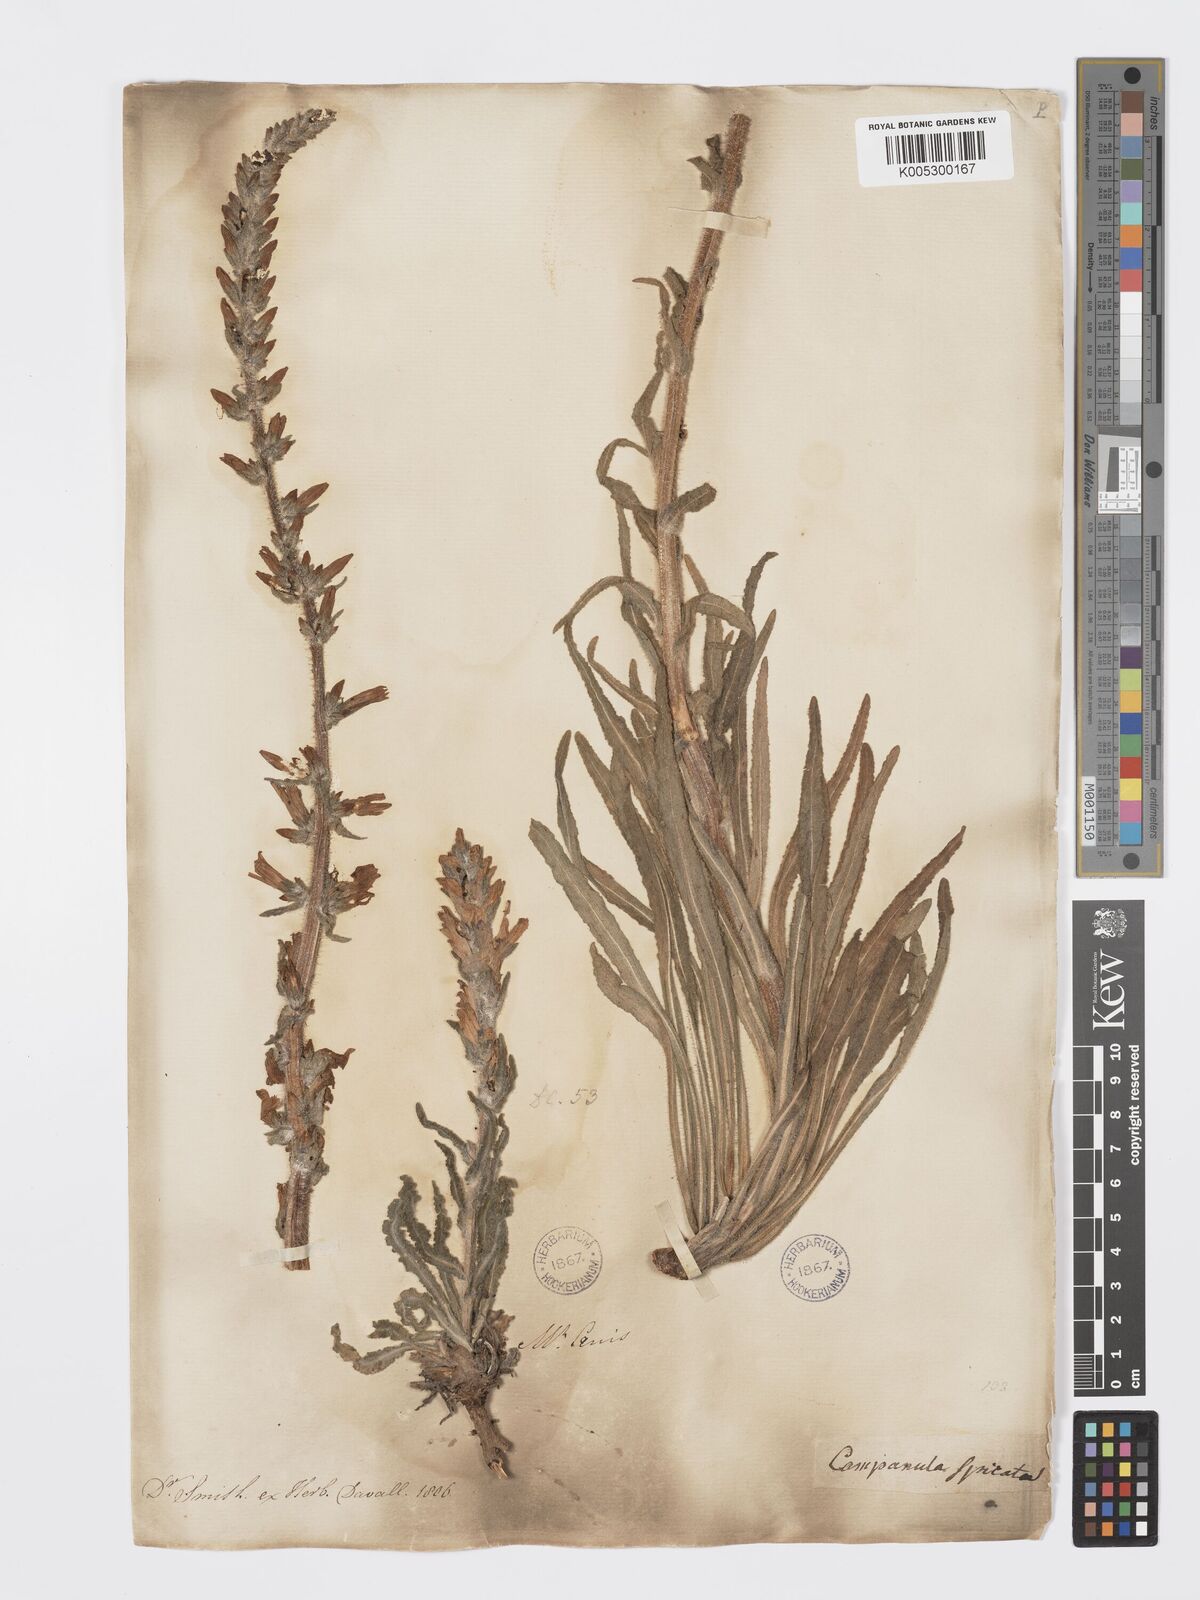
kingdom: Plantae
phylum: Tracheophyta
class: Magnoliopsida
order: Asterales
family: Campanulaceae
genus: Campanula
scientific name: Campanula spicata
